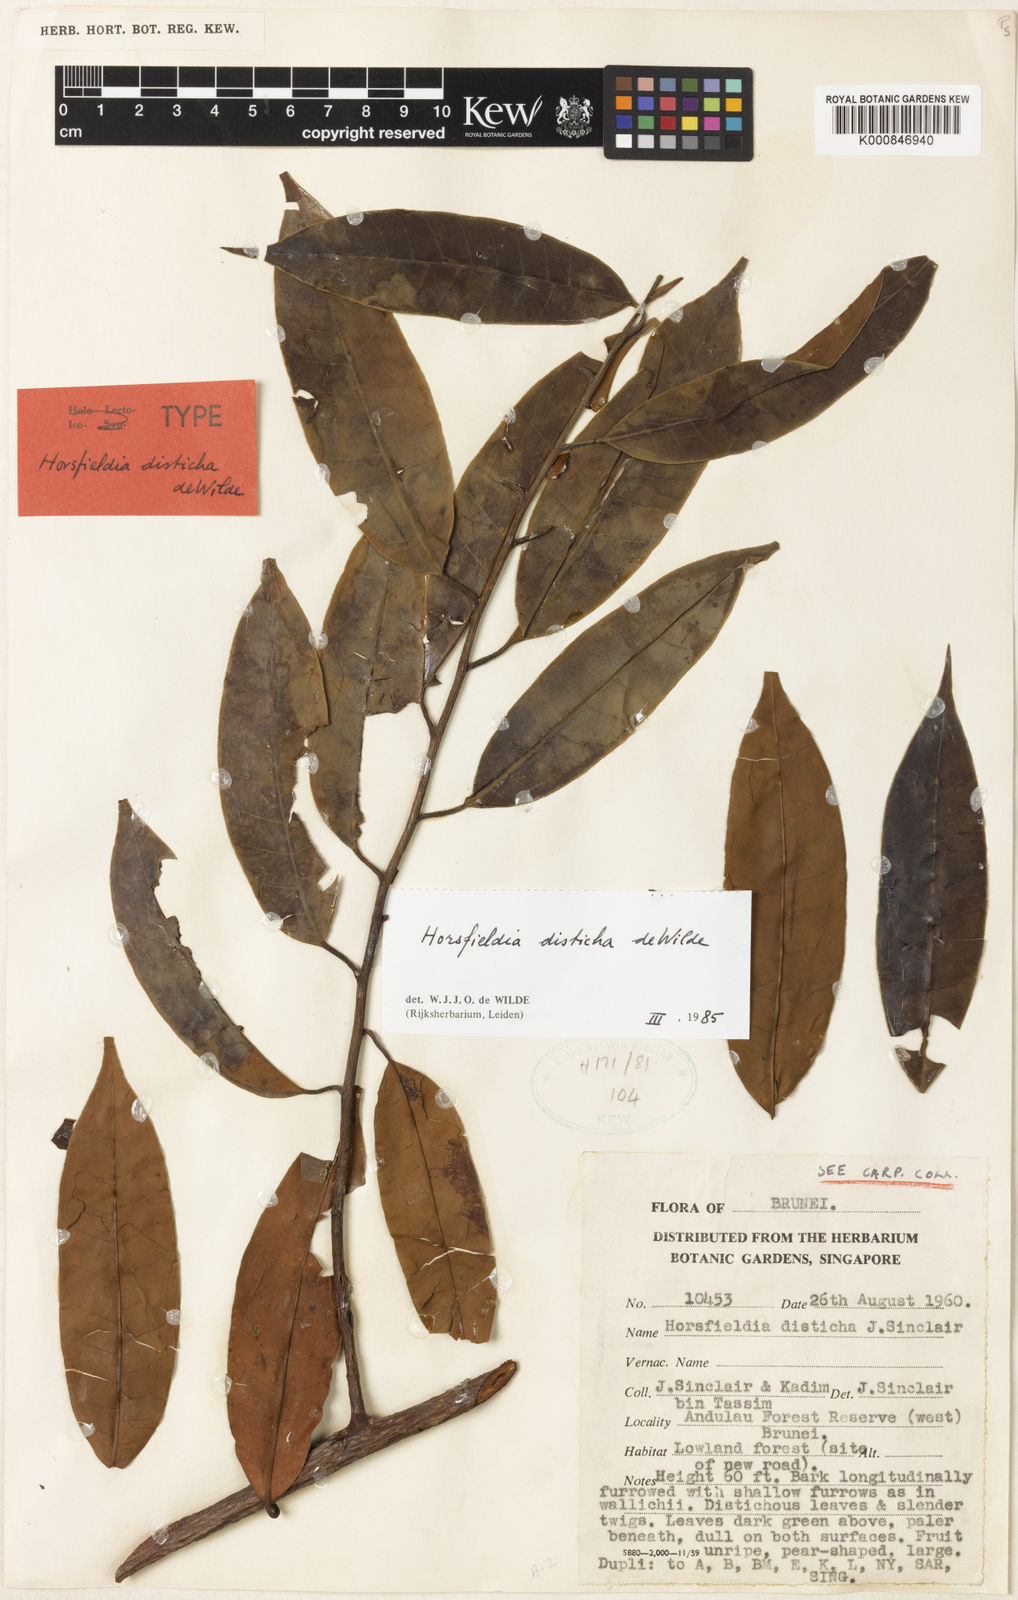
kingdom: Plantae
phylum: Tracheophyta
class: Magnoliopsida
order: Magnoliales
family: Myristicaceae
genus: Horsfieldia
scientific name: Horsfieldia disticha
